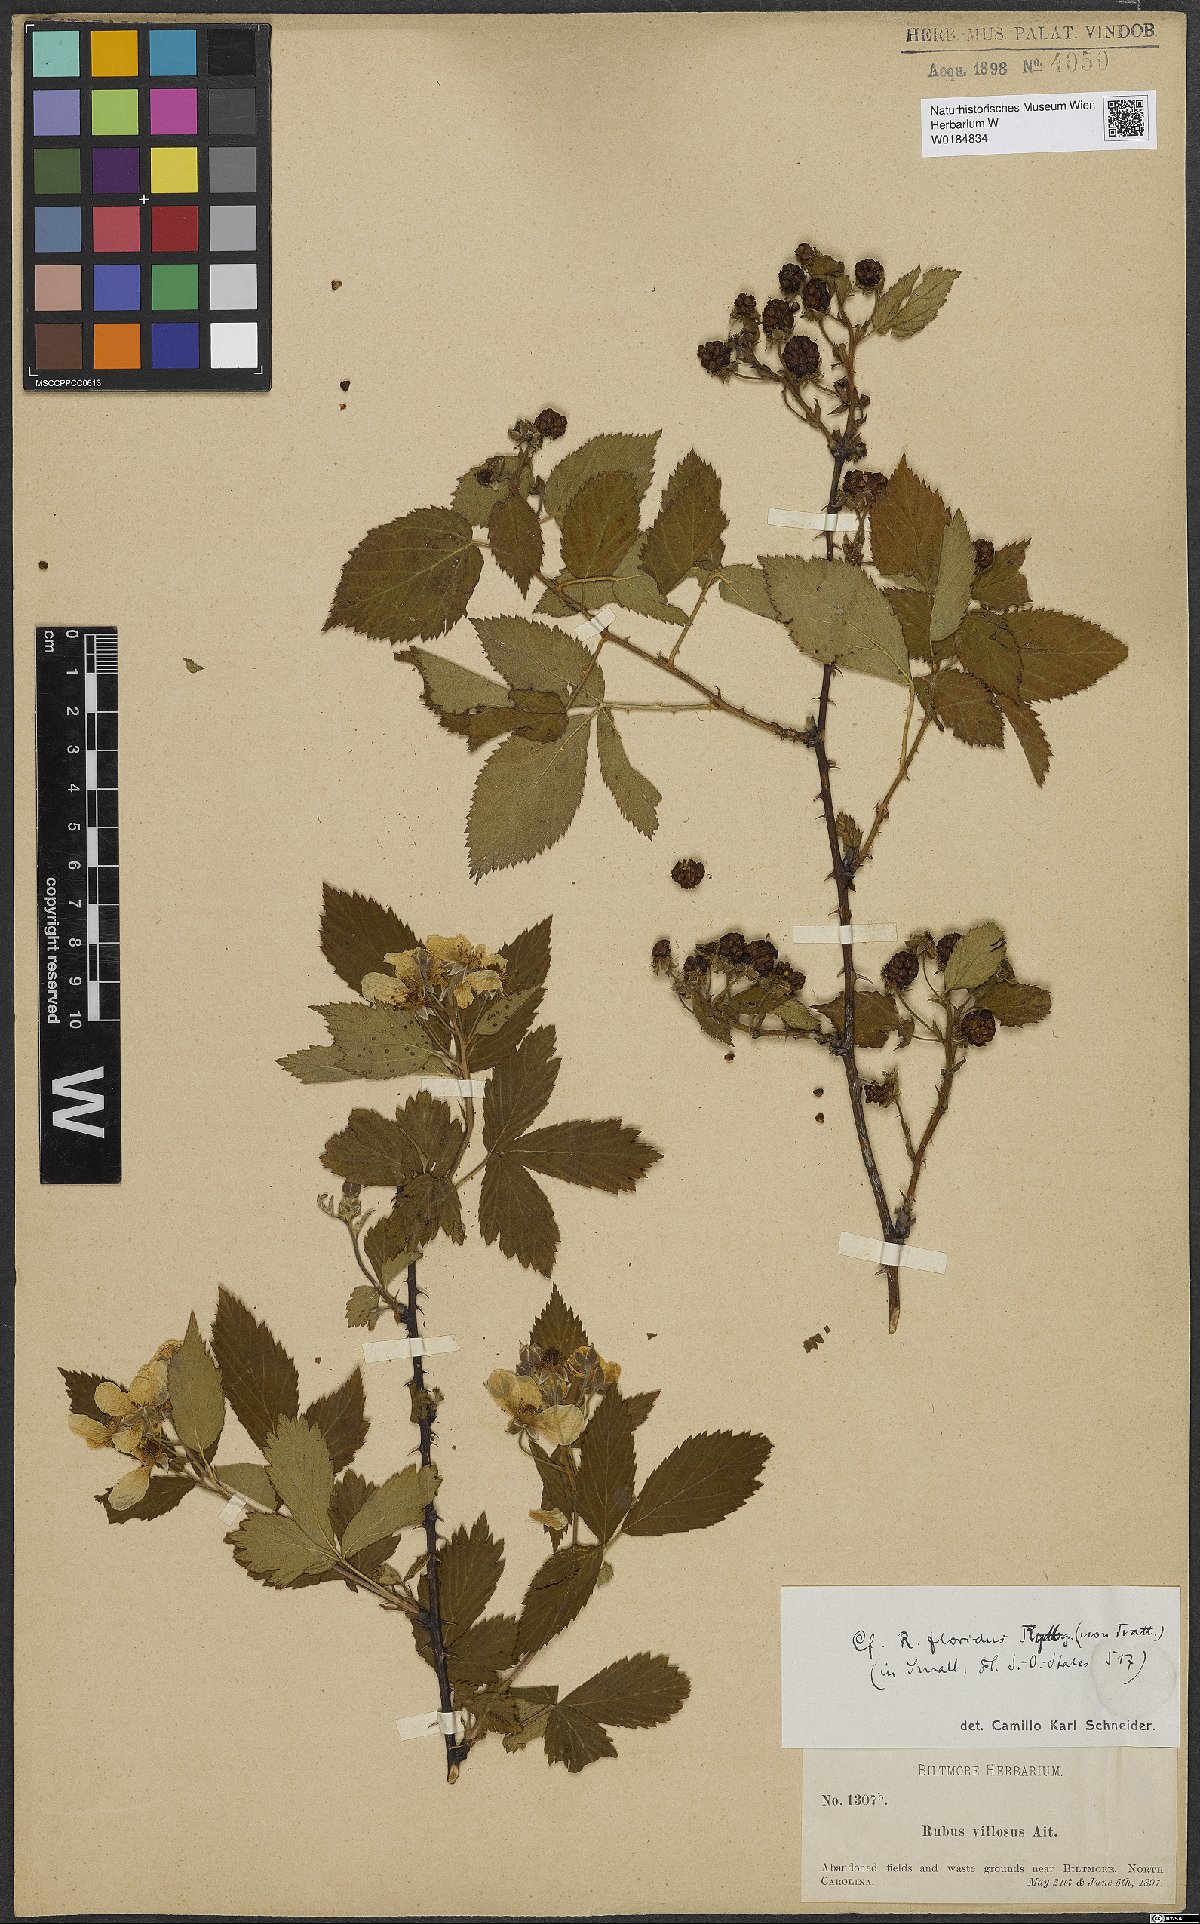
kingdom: Plantae
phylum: Tracheophyta
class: Magnoliopsida
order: Rosales
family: Rosaceae
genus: Rubus
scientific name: Rubus argutus
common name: Sawtooth blackberry
